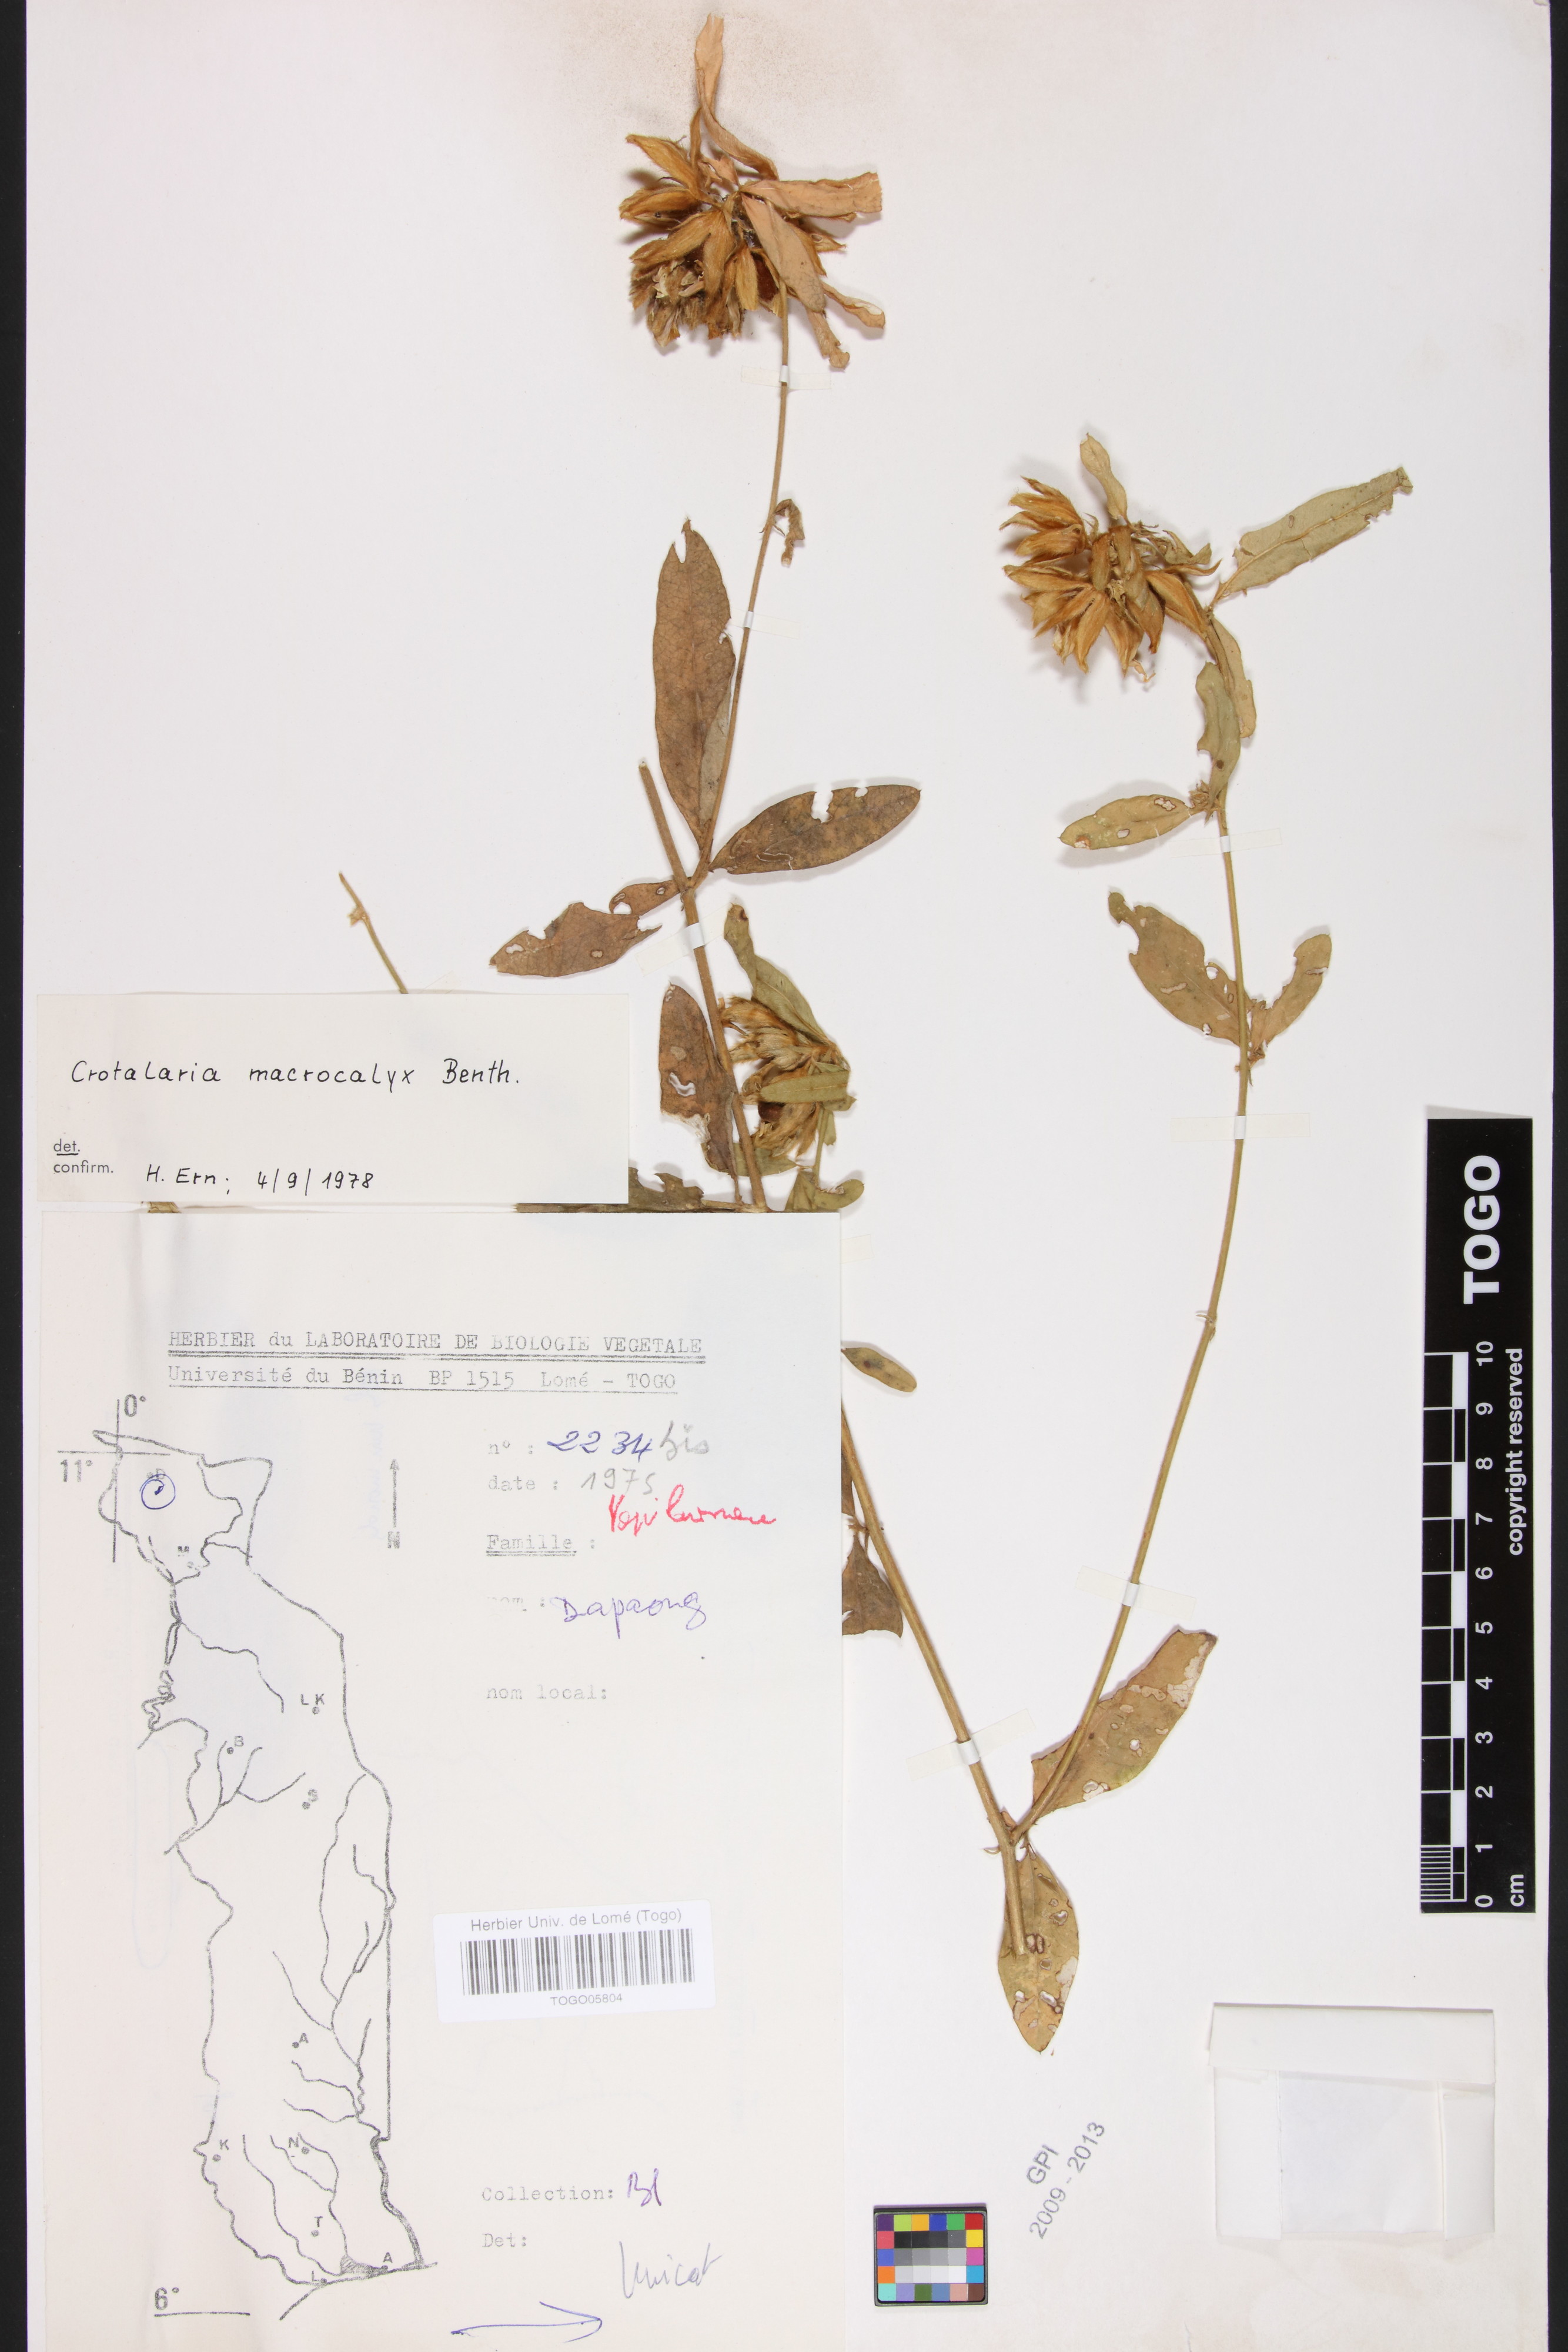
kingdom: Plantae
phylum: Tracheophyta
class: Magnoliopsida
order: Fabales
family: Fabaceae
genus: Crotalaria
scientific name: Crotalaria macrocalyx
